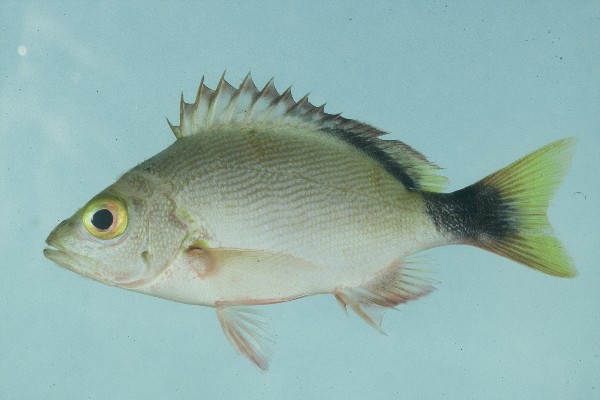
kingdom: Animalia
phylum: Chordata
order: Perciformes
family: Lutjanidae
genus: Lutjanus
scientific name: Lutjanus gibbus
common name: Humpback snapper
